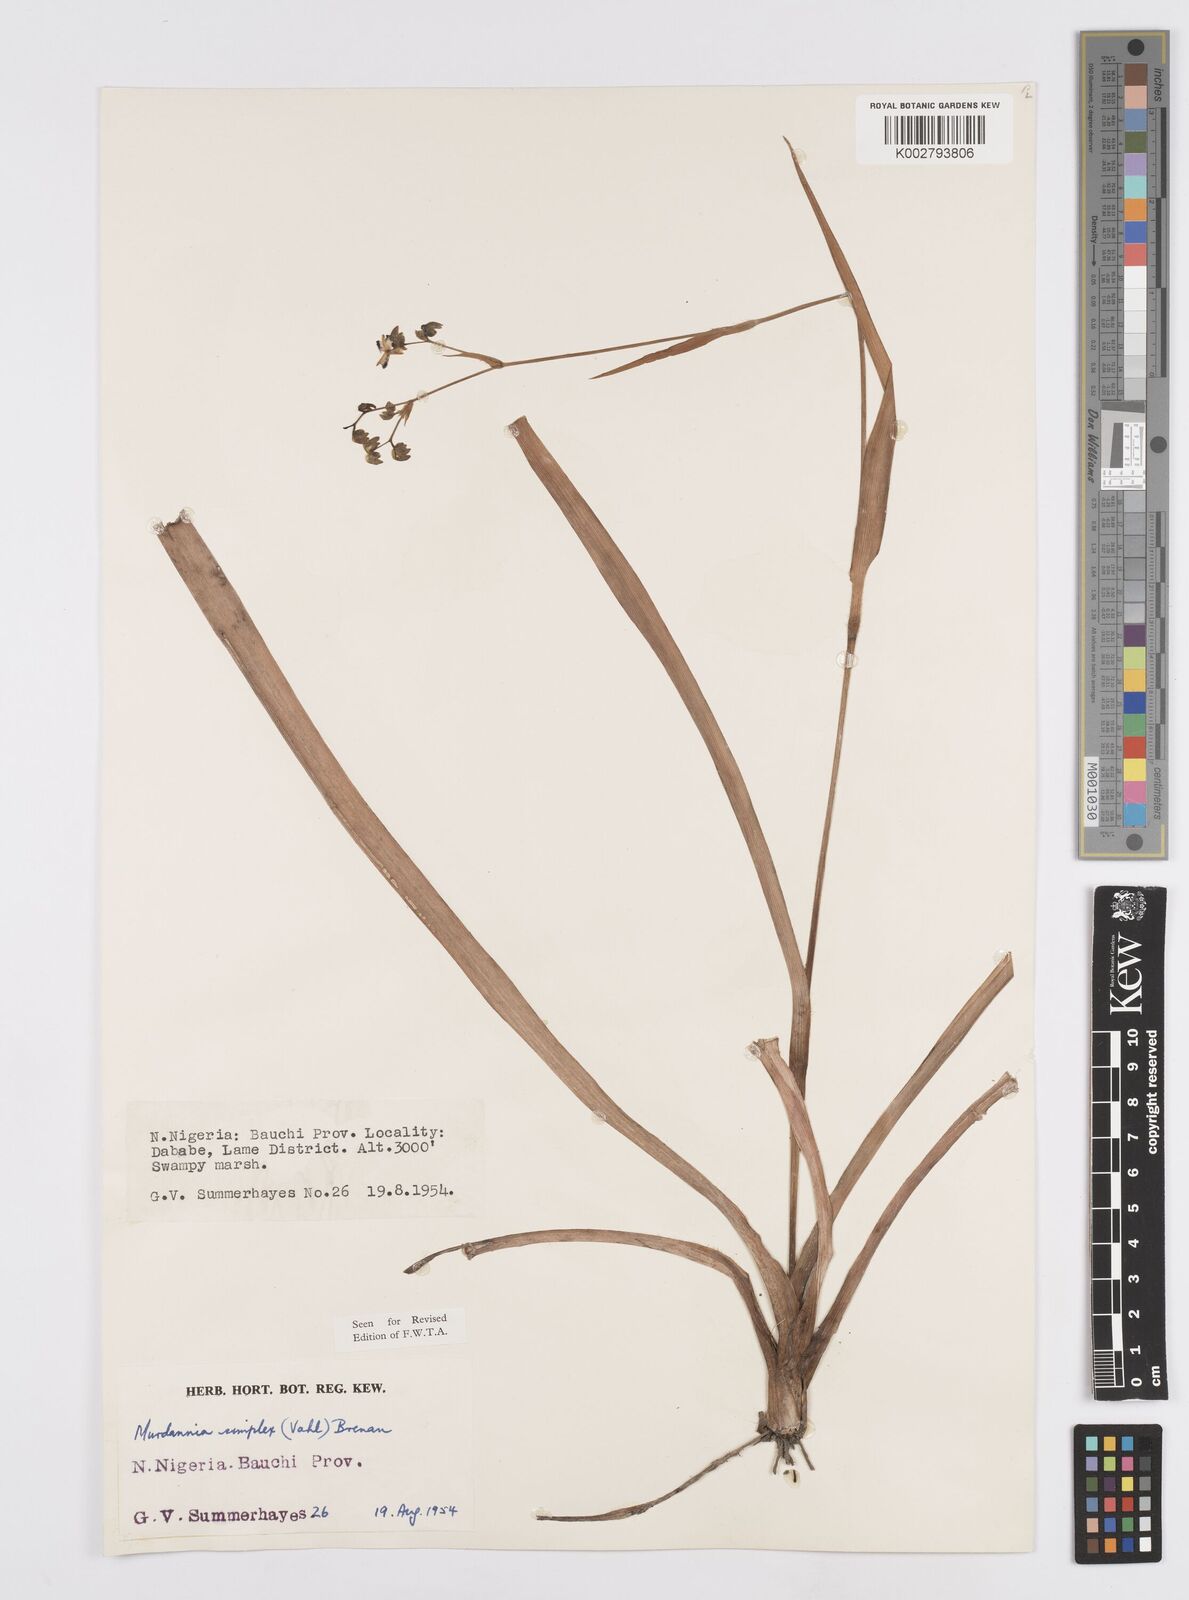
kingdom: Plantae
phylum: Tracheophyta
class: Liliopsida
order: Commelinales
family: Commelinaceae
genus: Murdannia
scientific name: Murdannia simplex
